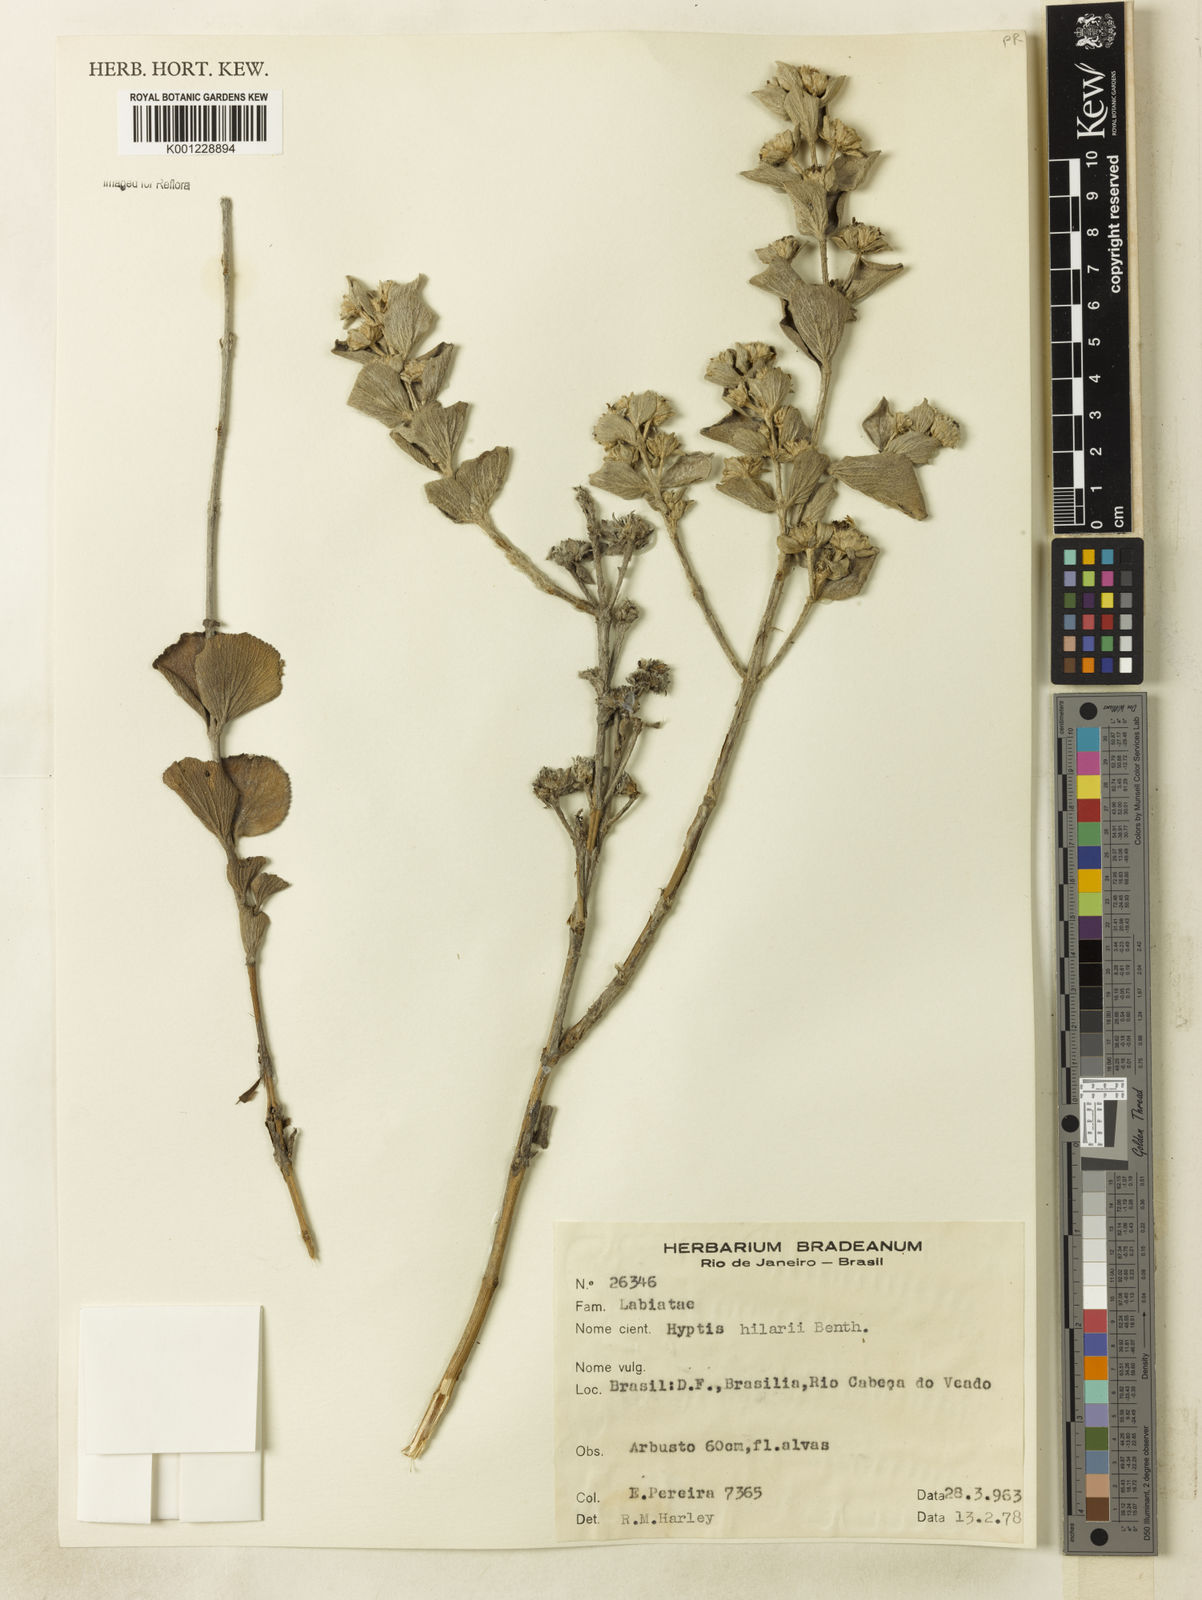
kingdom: Plantae
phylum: Tracheophyta
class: Magnoliopsida
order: Lamiales
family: Lamiaceae
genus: Hyptis
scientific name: Hyptis hilarii
